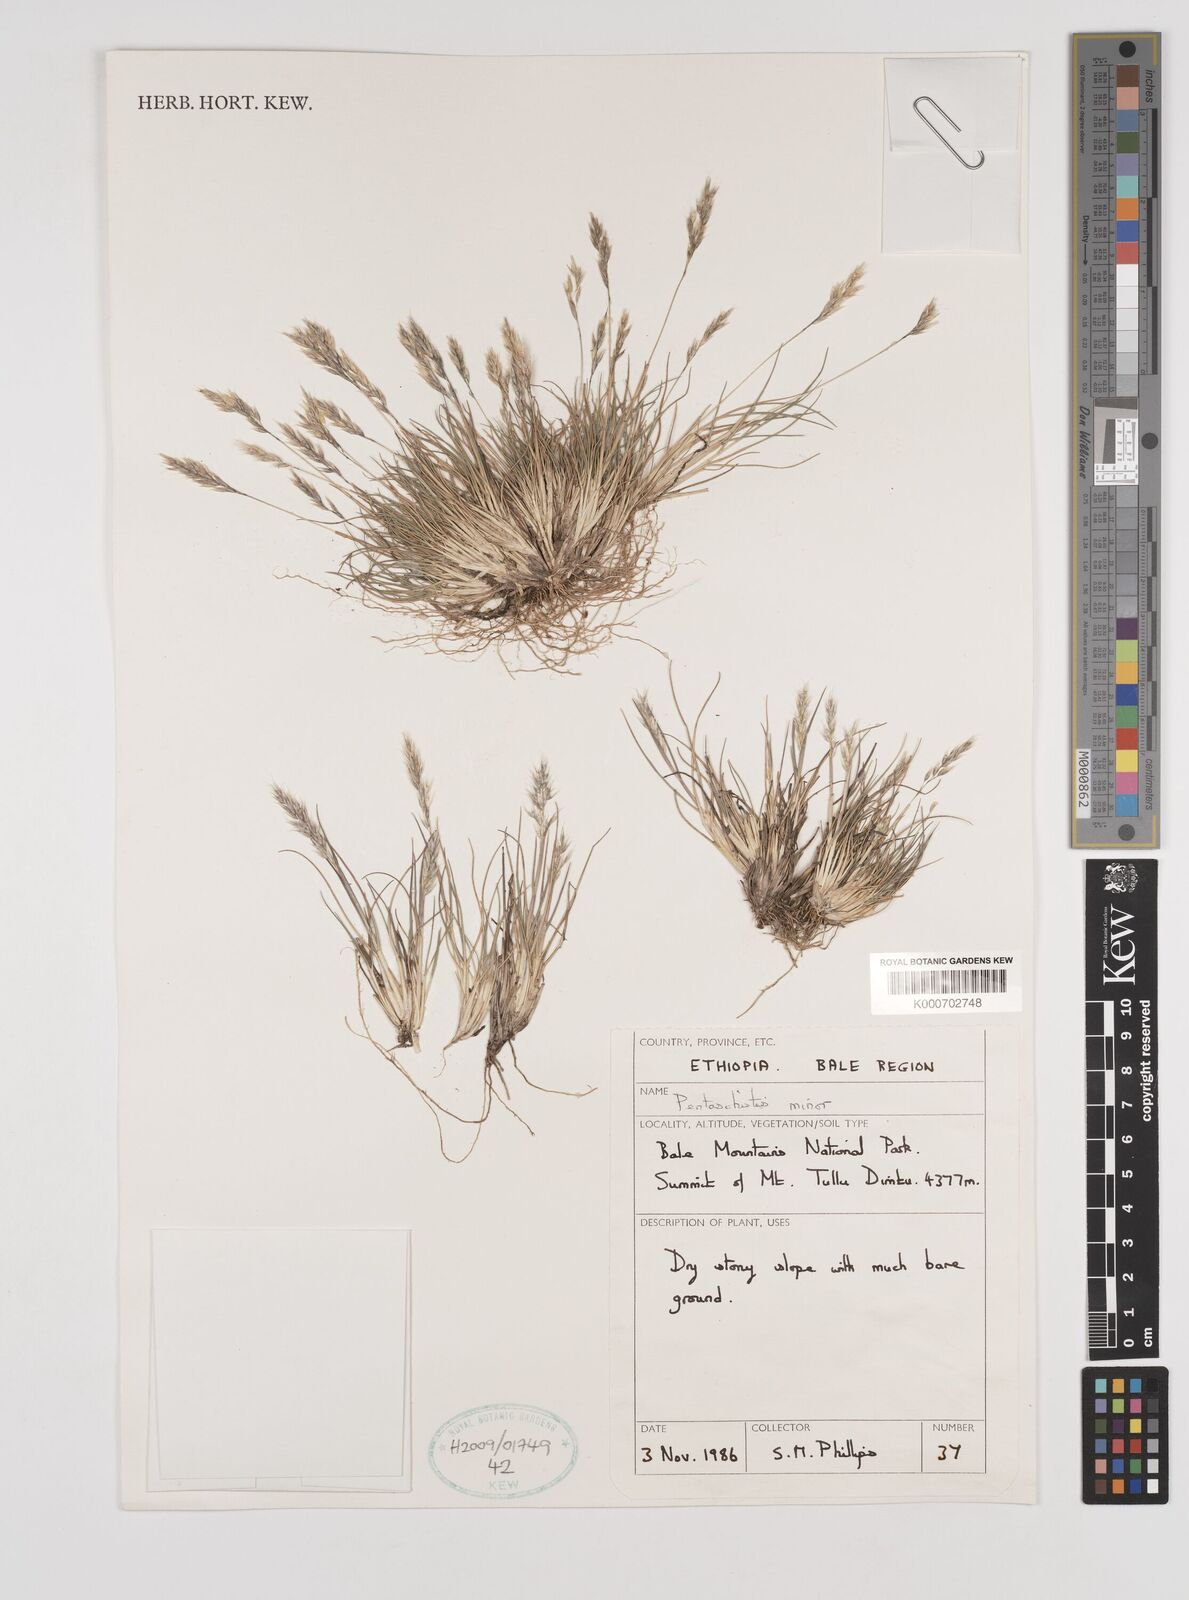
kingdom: Plantae
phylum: Tracheophyta
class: Liliopsida
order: Poales
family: Poaceae
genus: Pentameris
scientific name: Pentameris minor
